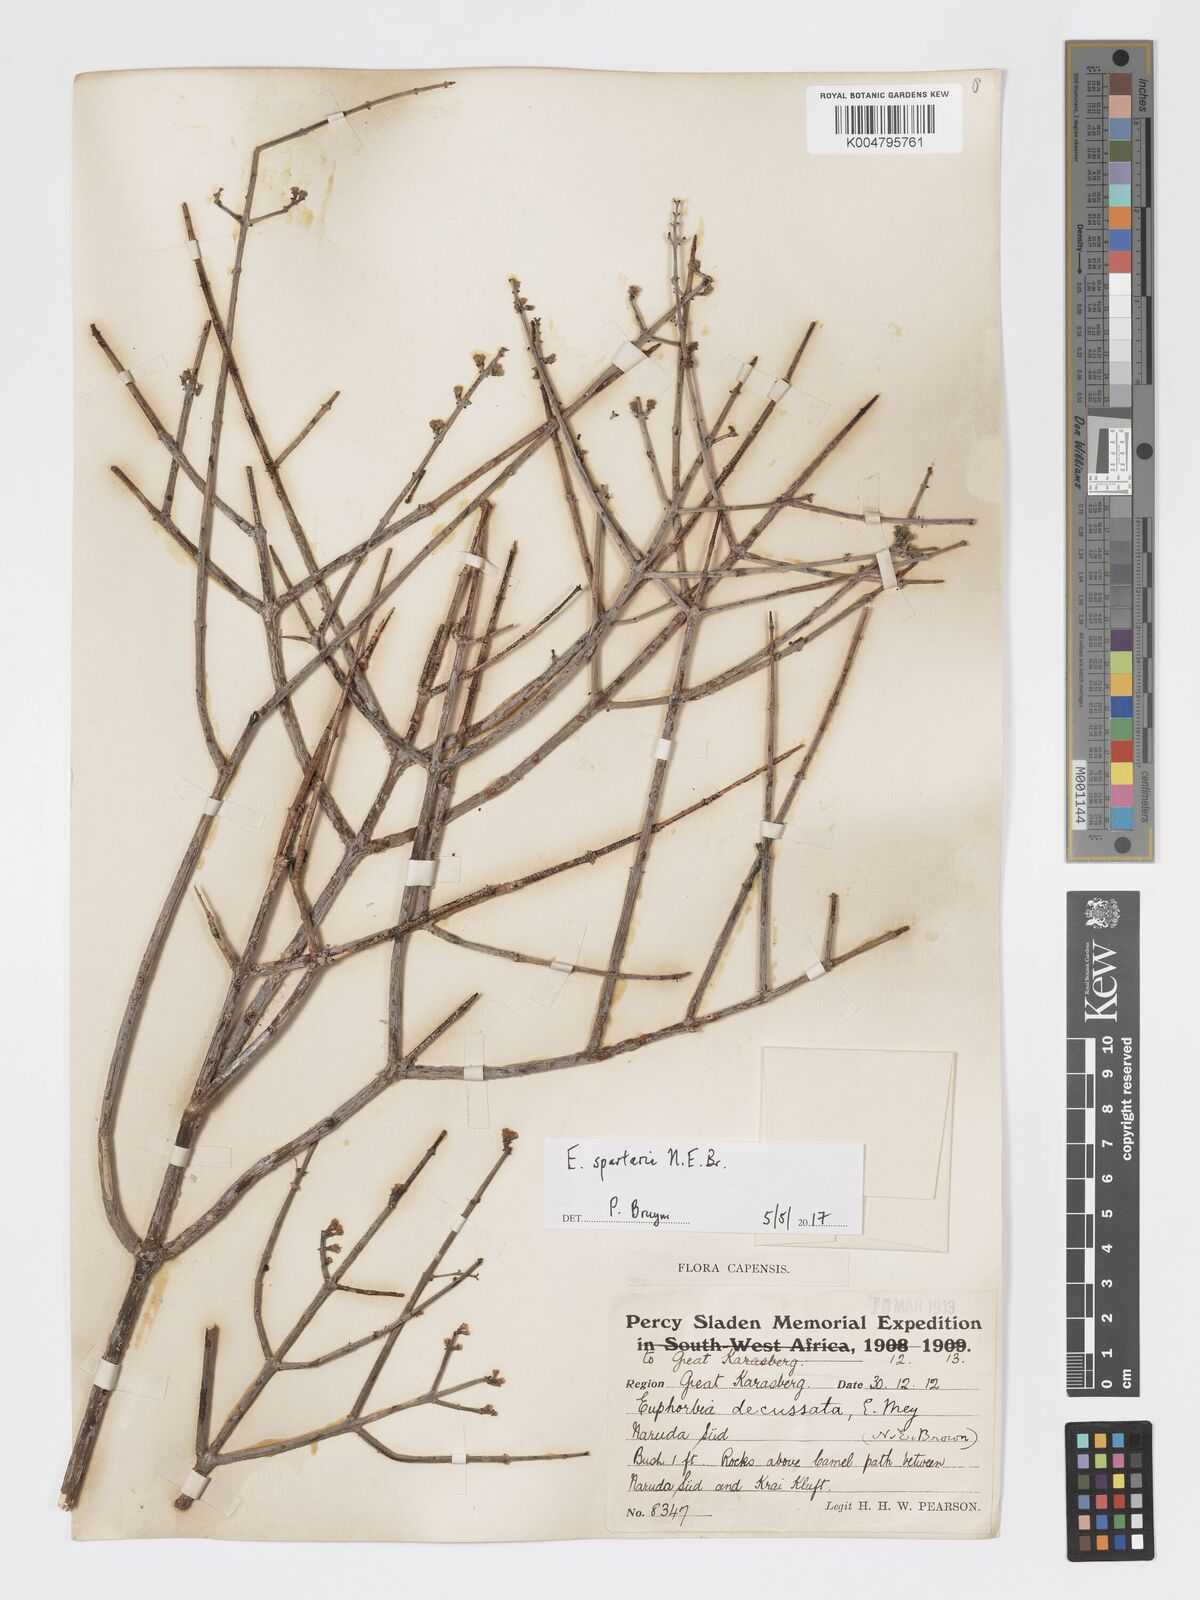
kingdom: Plantae
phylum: Tracheophyta
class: Magnoliopsida
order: Malpighiales
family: Euphorbiaceae
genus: Euphorbia
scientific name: Euphorbia spartaria
